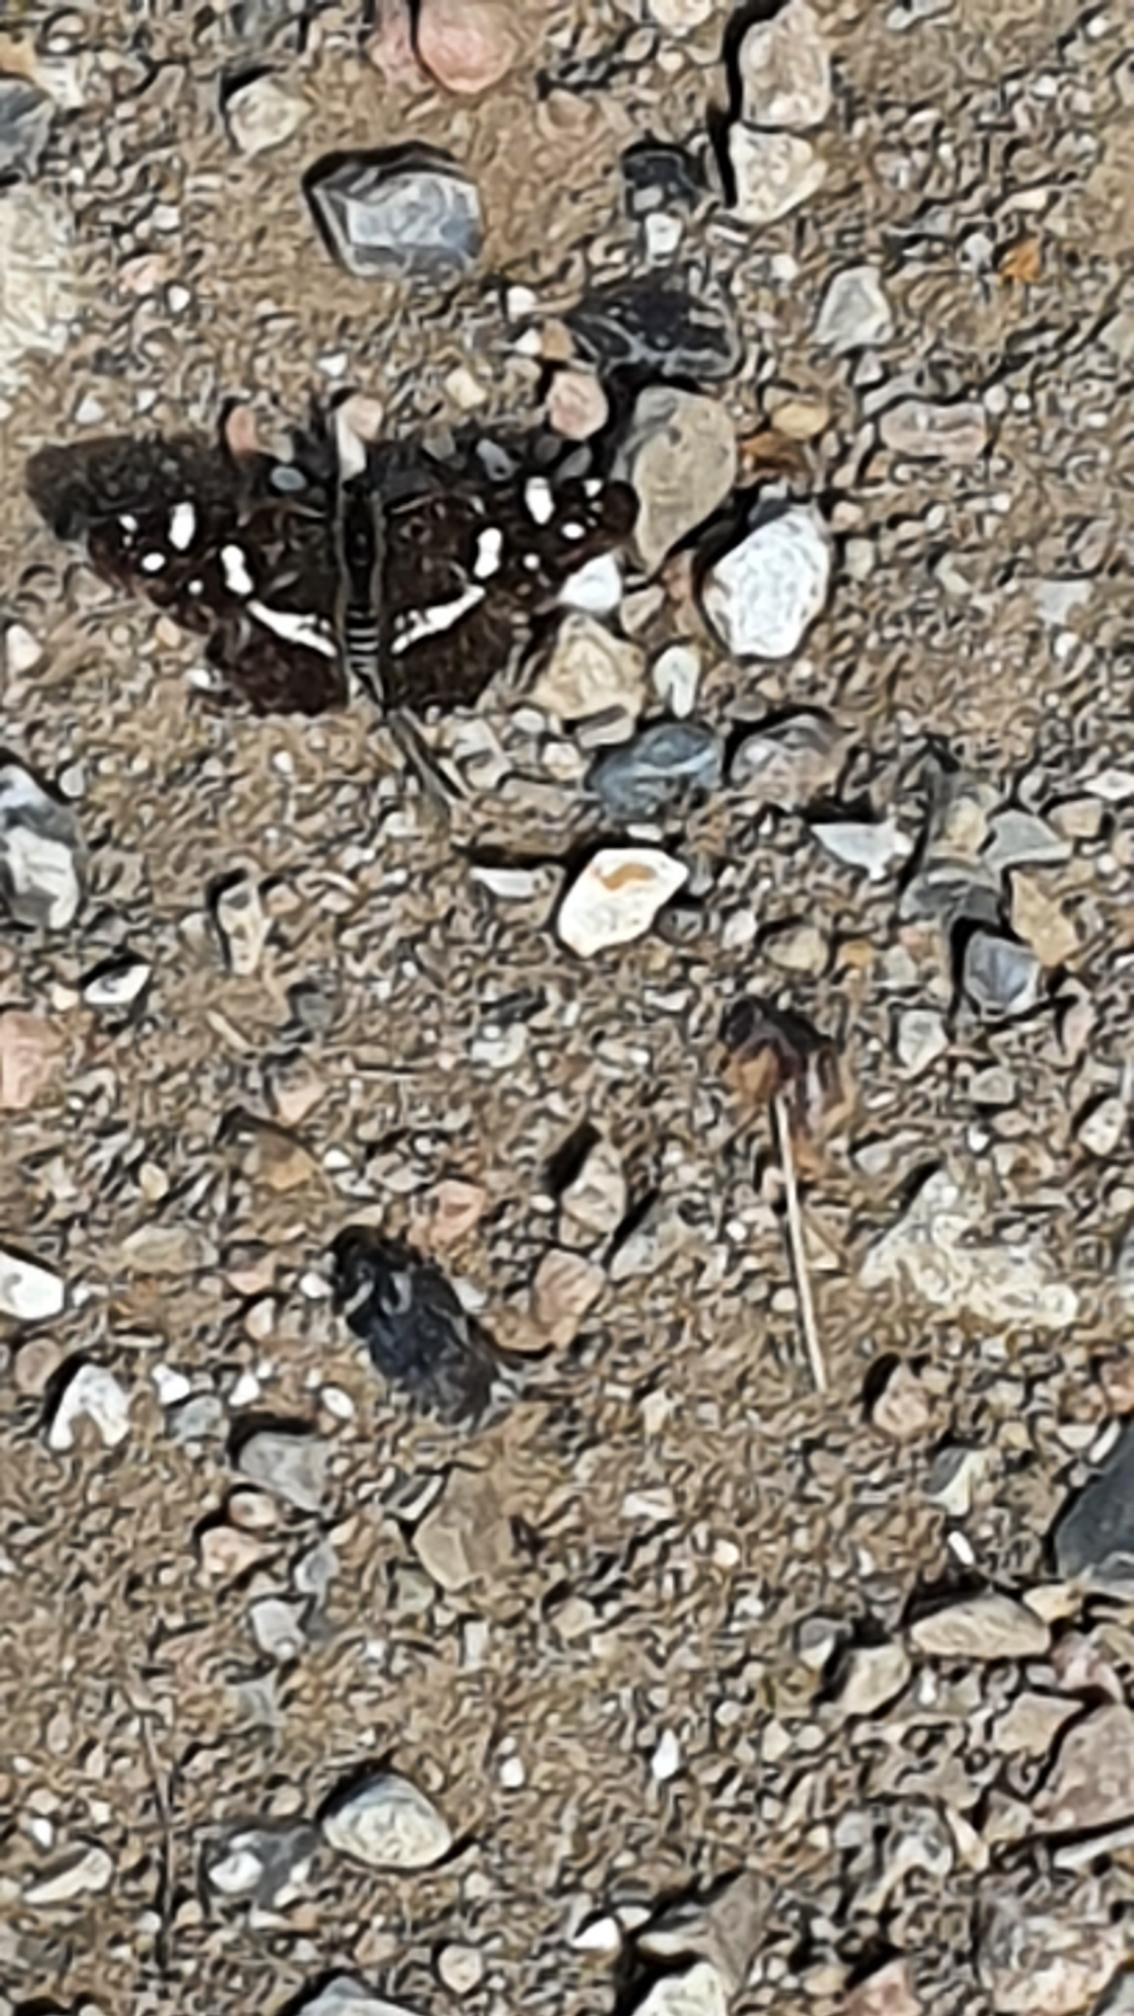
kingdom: Animalia
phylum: Arthropoda
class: Insecta
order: Lepidoptera
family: Nymphalidae
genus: Araschnia
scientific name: Araschnia levana
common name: Nældesommerfugl
